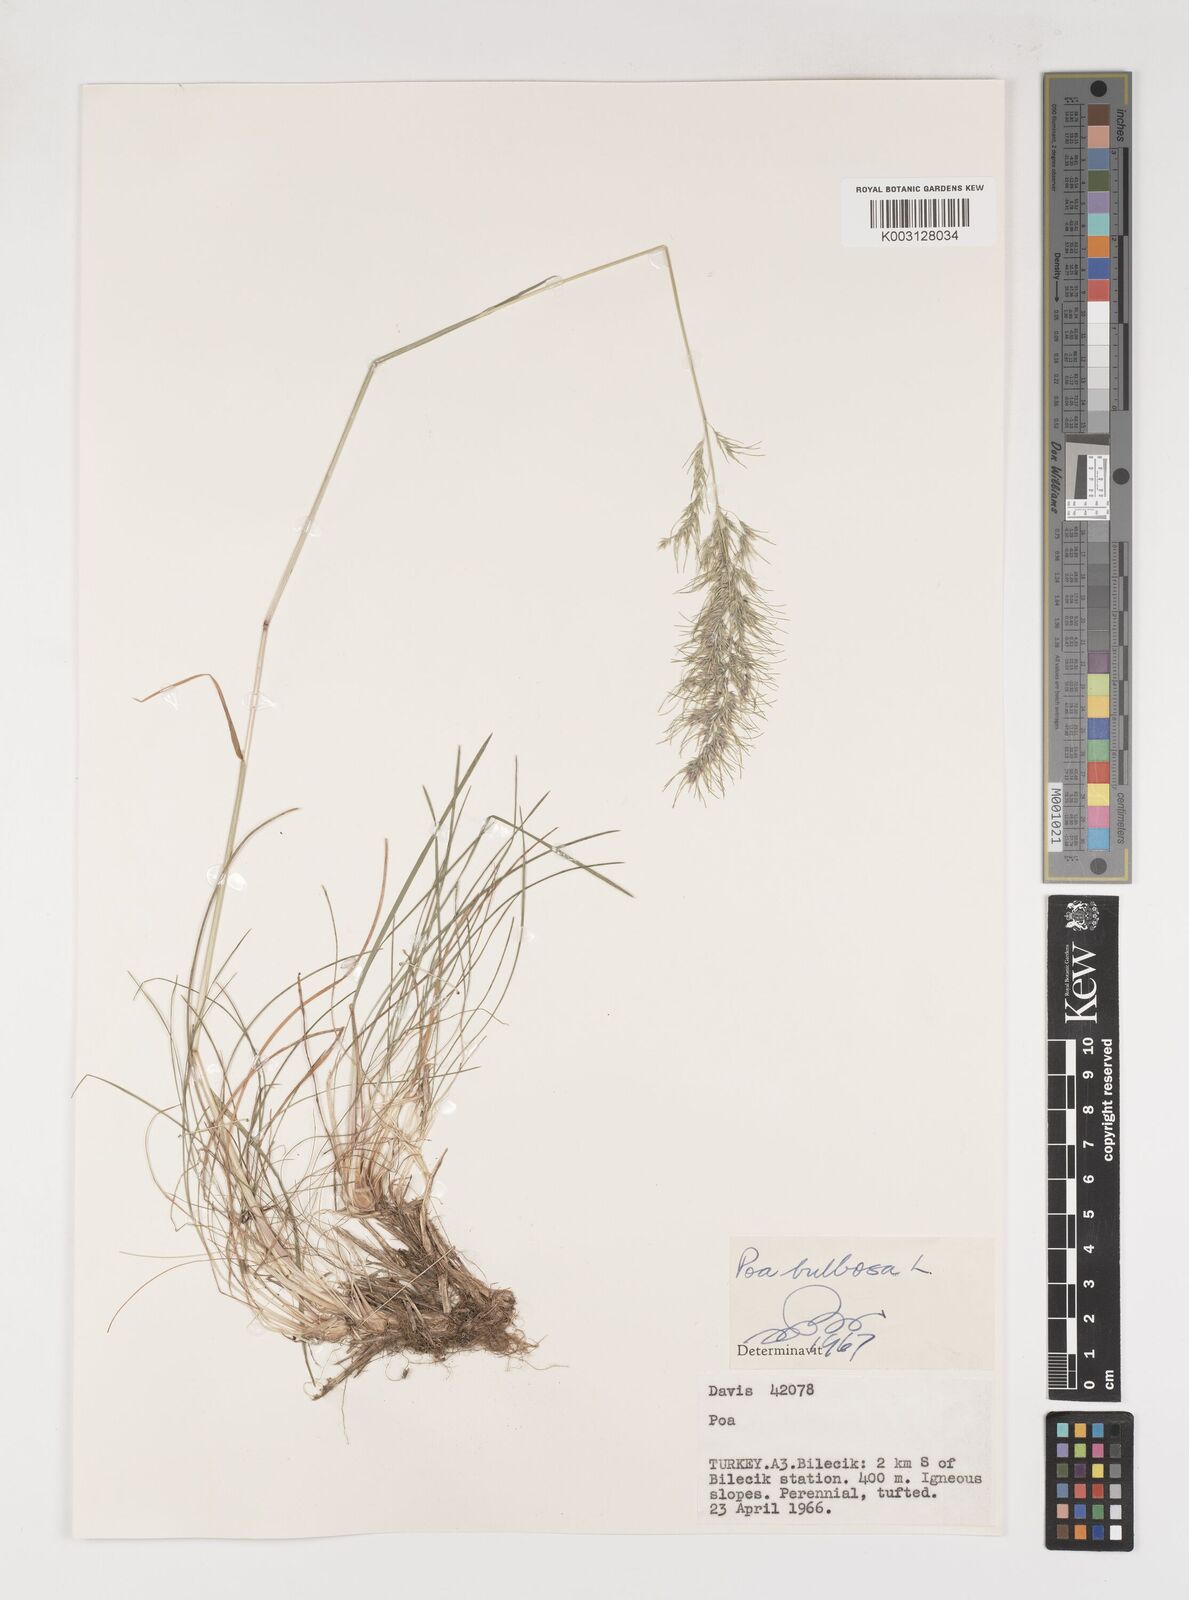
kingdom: Plantae
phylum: Tracheophyta
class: Liliopsida
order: Poales
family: Poaceae
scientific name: Poaceae
